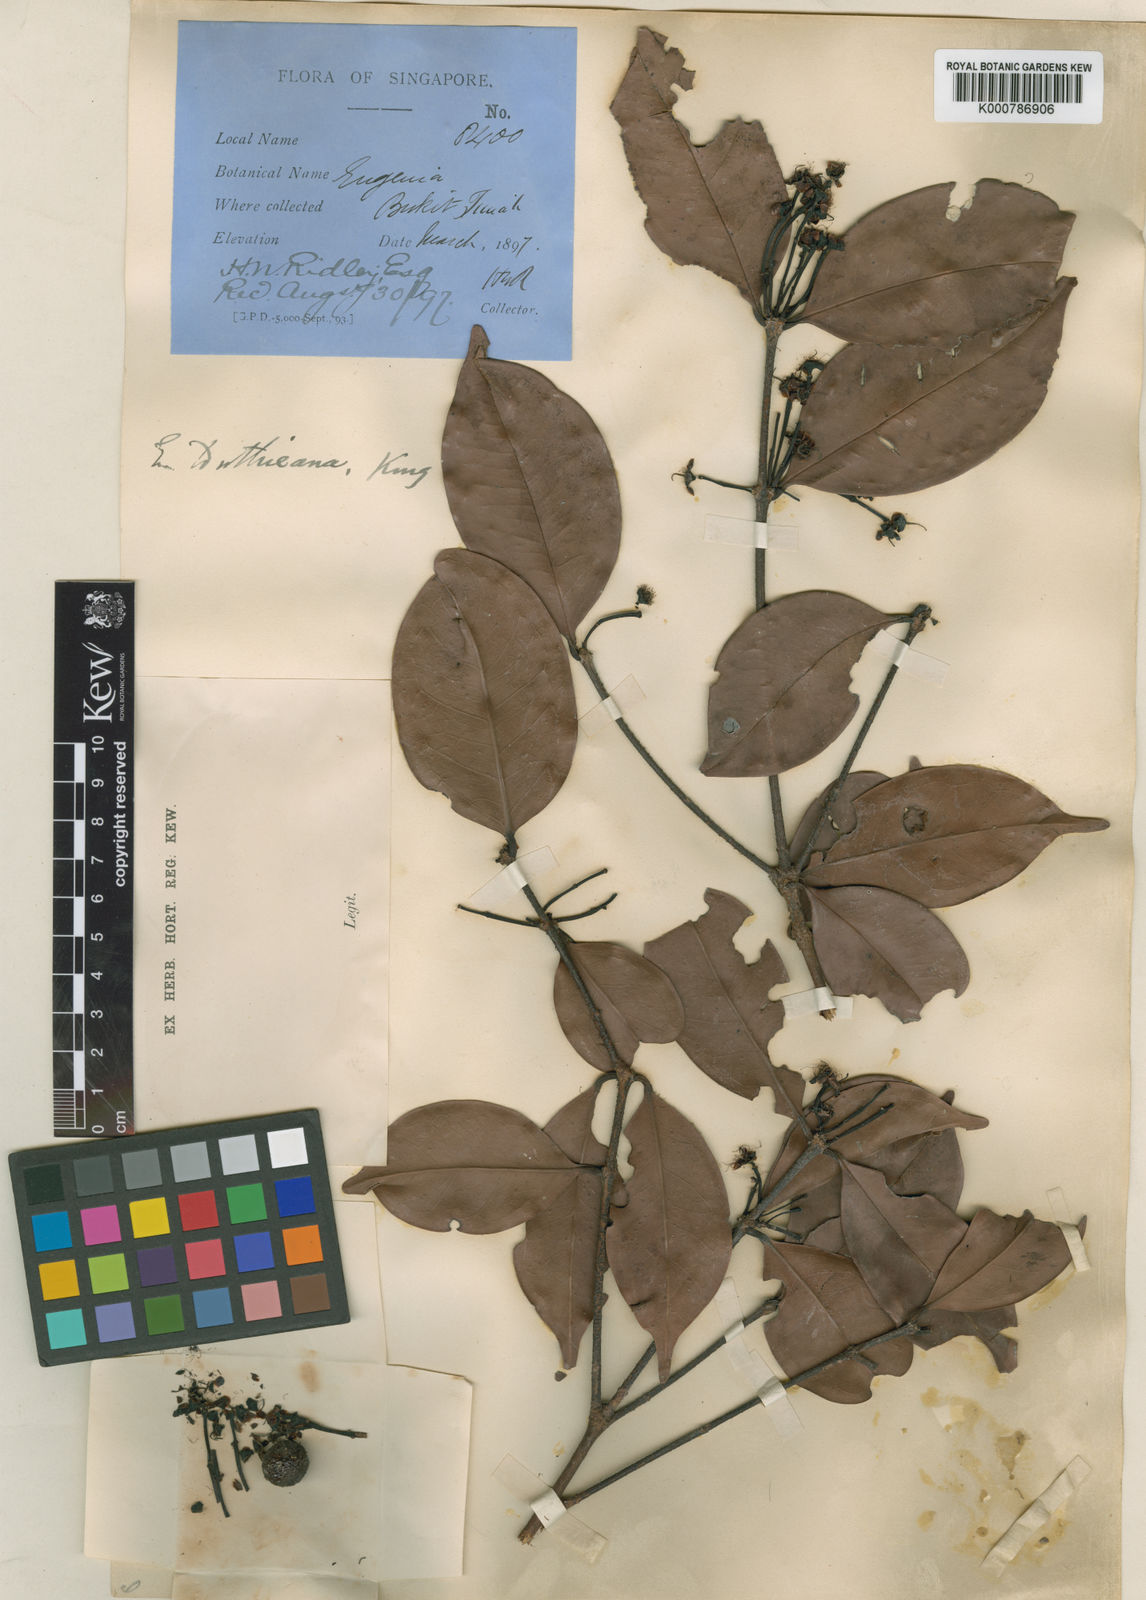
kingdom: Plantae
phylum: Tracheophyta
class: Magnoliopsida
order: Myrtales
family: Myrtaceae
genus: Syzygium
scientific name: Syzygium duthieanum
